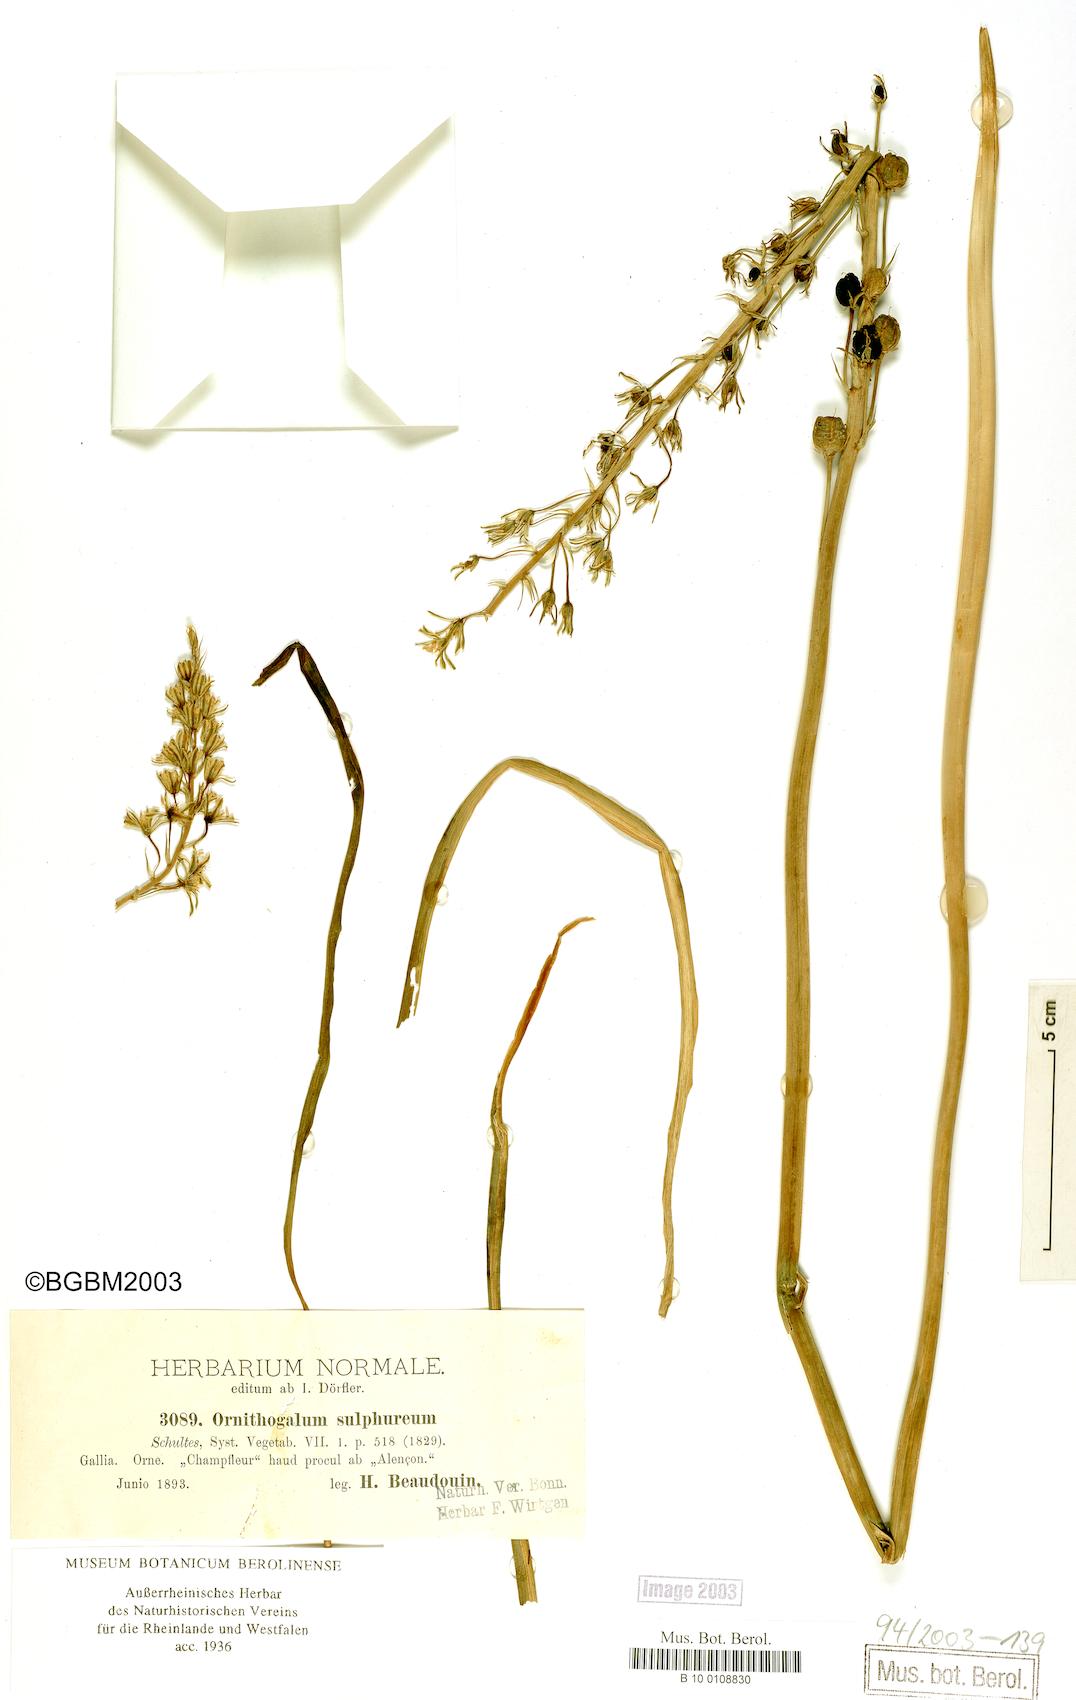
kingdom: Plantae
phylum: Tracheophyta
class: Liliopsida
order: Asparagales
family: Asparagaceae
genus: Ornithogalum
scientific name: Ornithogalum pyrenaicum
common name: Spiked star-of-bethlehem
